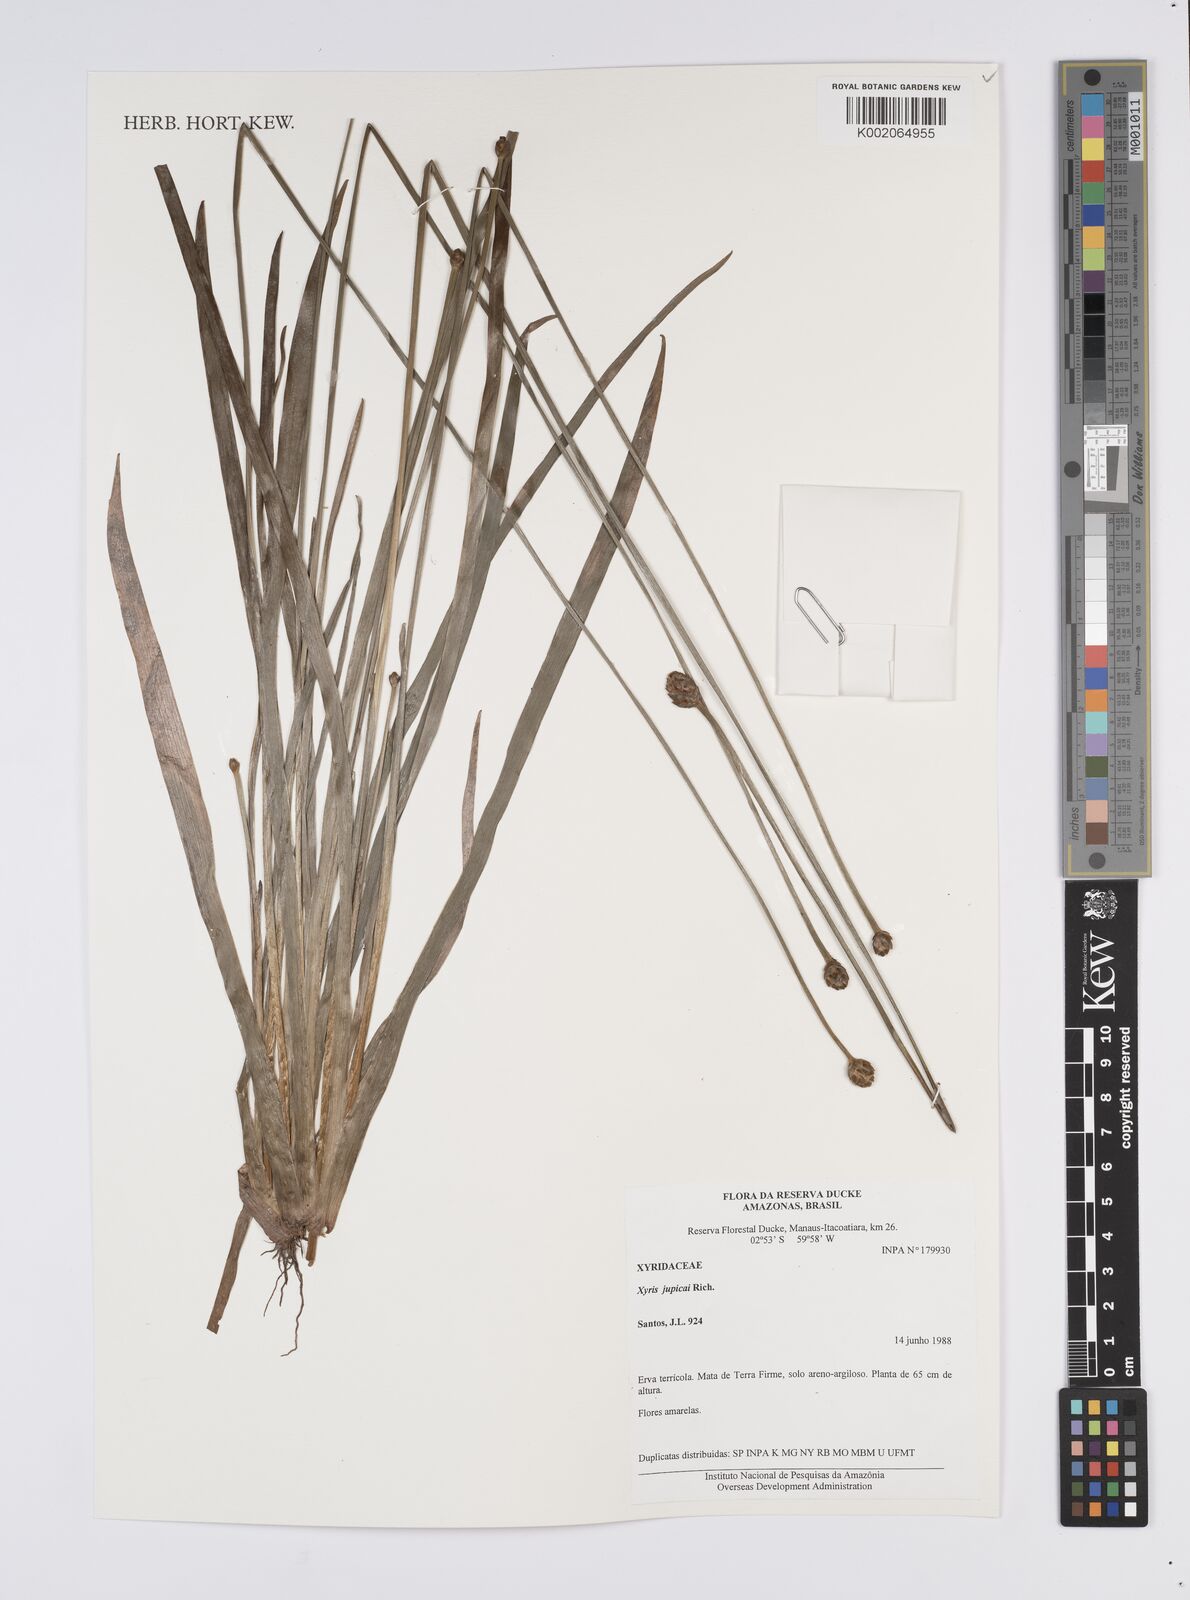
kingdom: Plantae
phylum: Tracheophyta
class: Liliopsida
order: Poales
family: Xyridaceae
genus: Xyris
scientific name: Xyris jupicai
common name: Richard's yelloweyed grass
